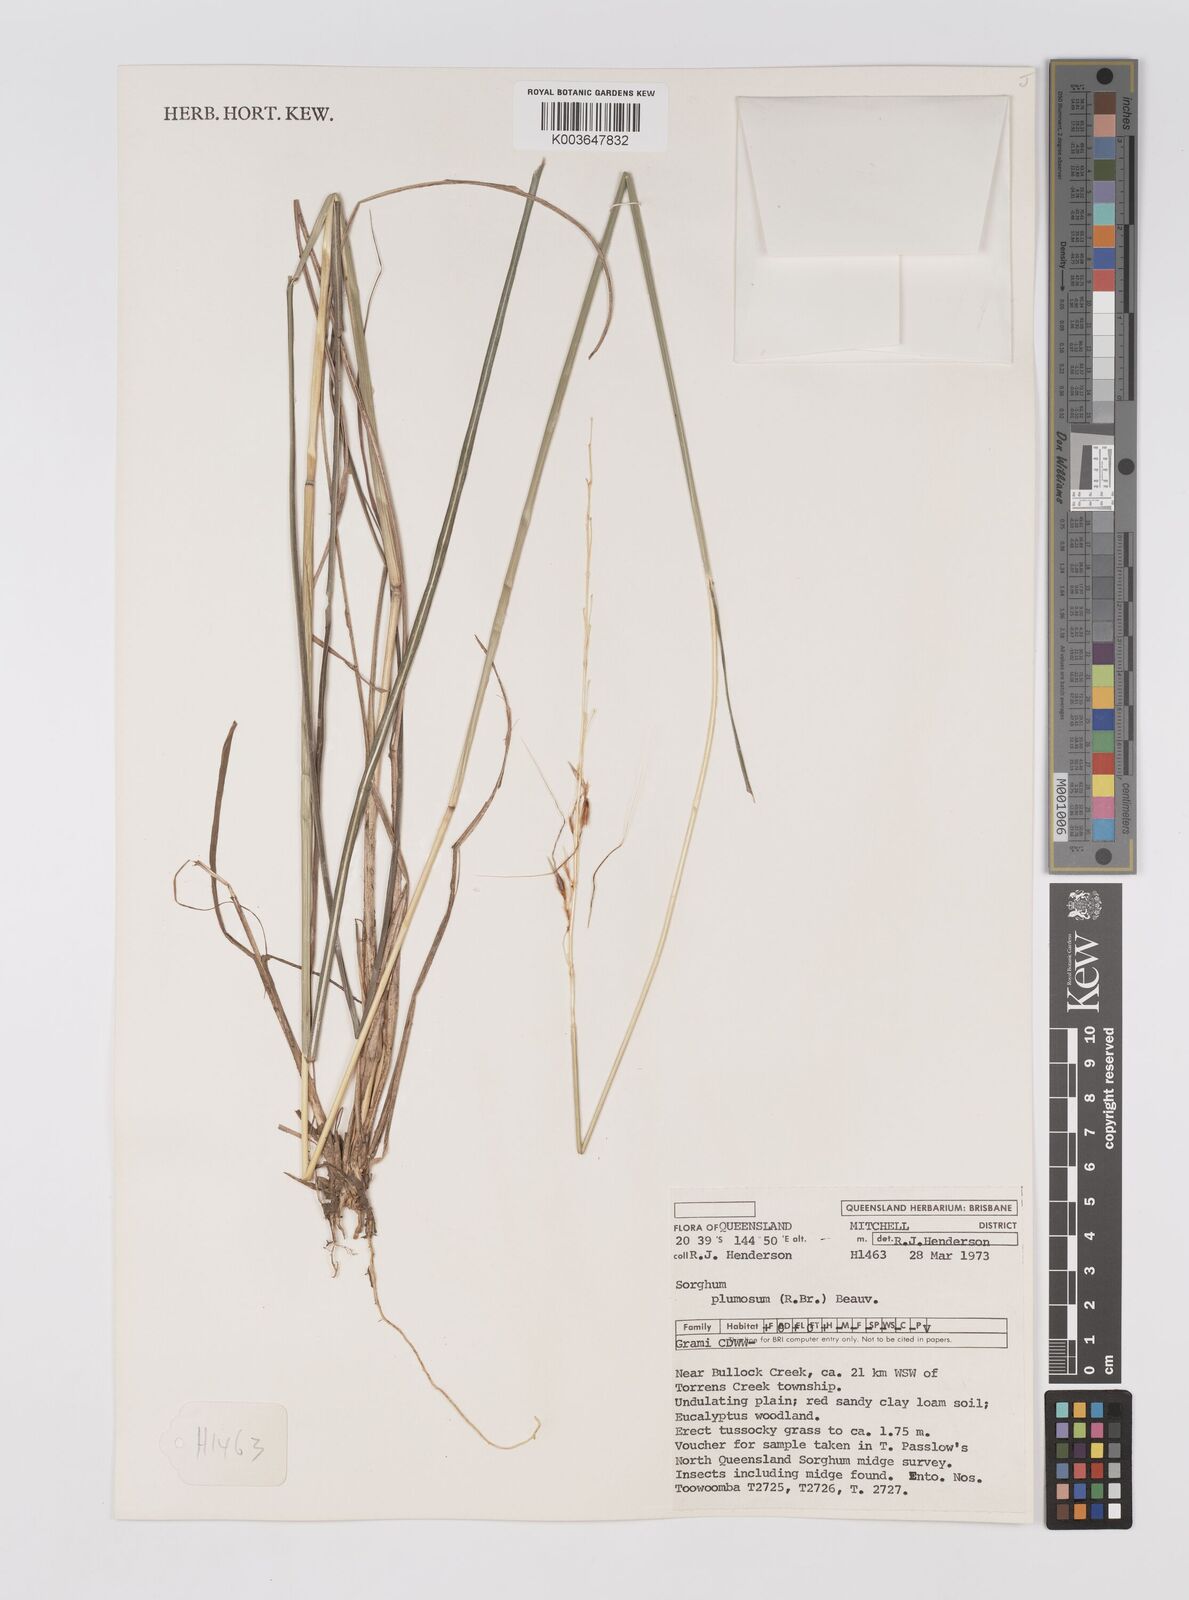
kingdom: Plantae
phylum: Tracheophyta
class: Liliopsida
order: Poales
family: Poaceae
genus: Sarga
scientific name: Sarga plumosa
